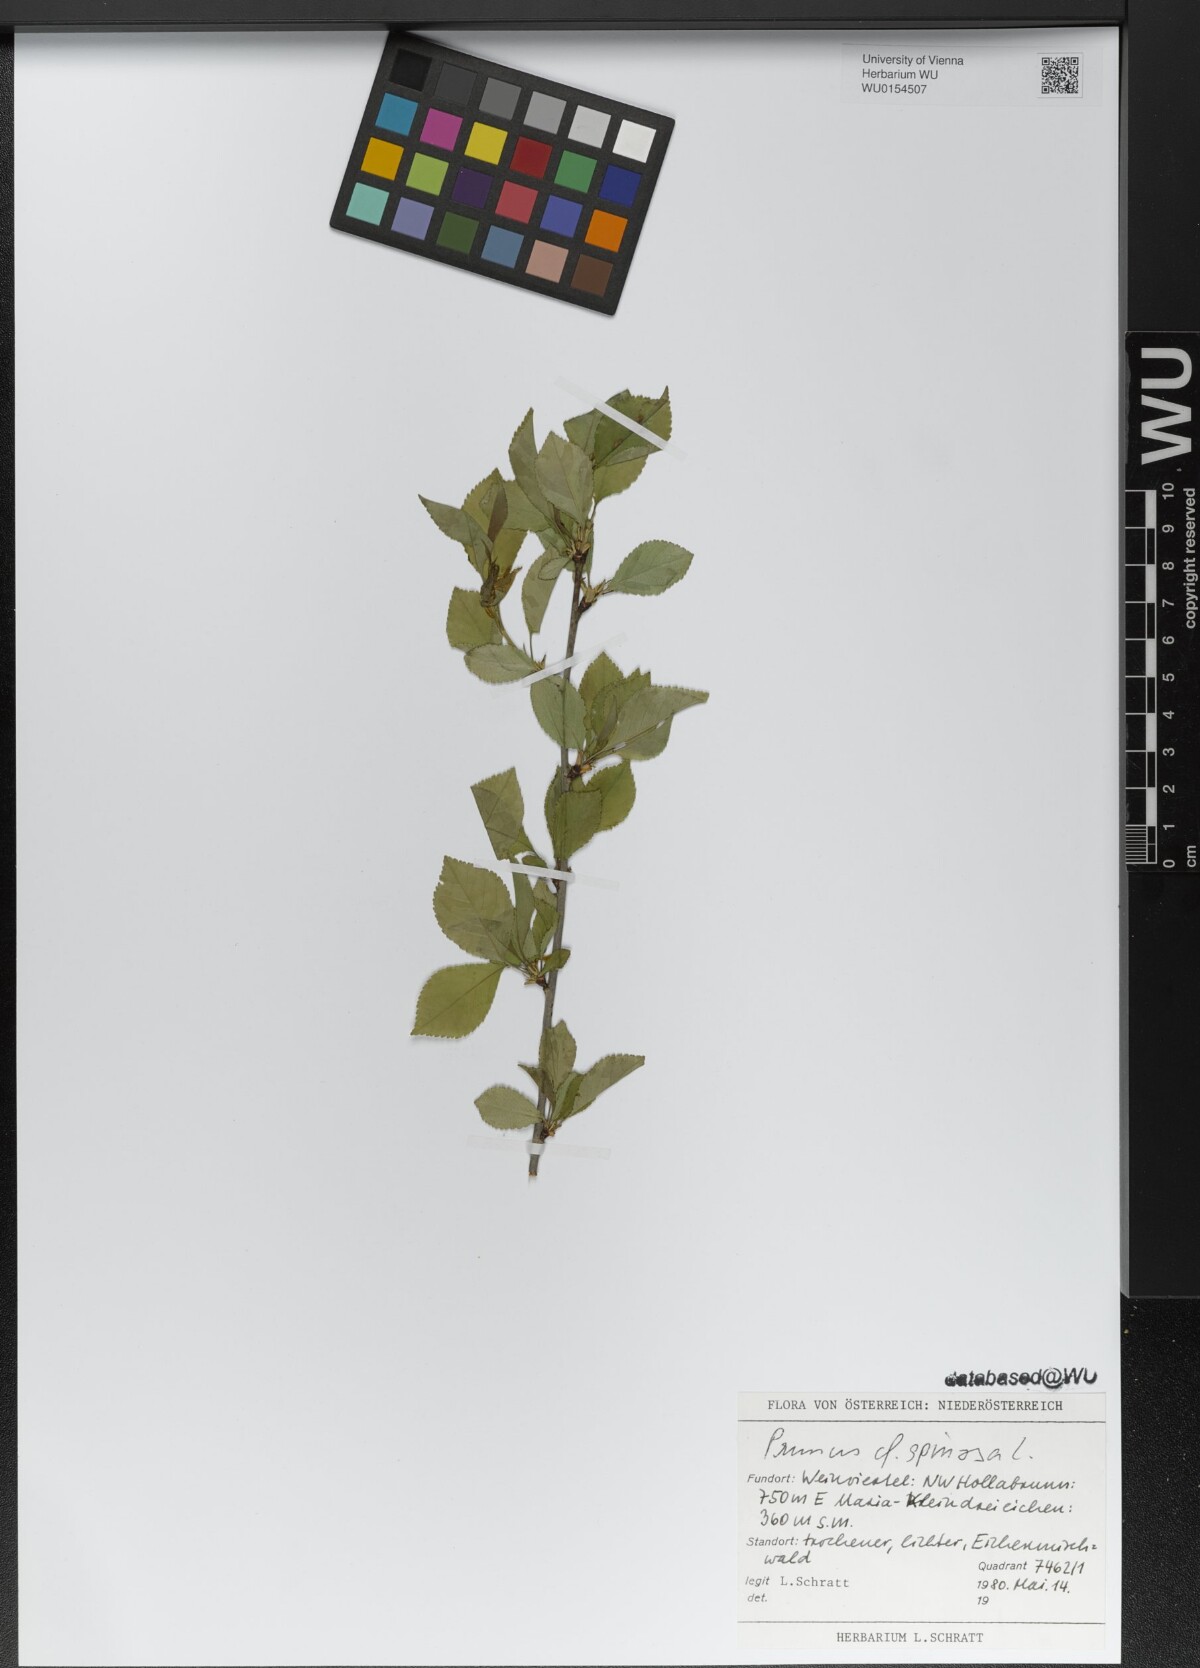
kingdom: Plantae
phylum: Tracheophyta
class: Magnoliopsida
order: Rosales
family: Rosaceae
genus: Prunus
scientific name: Prunus spinosa
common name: Blackthorn
